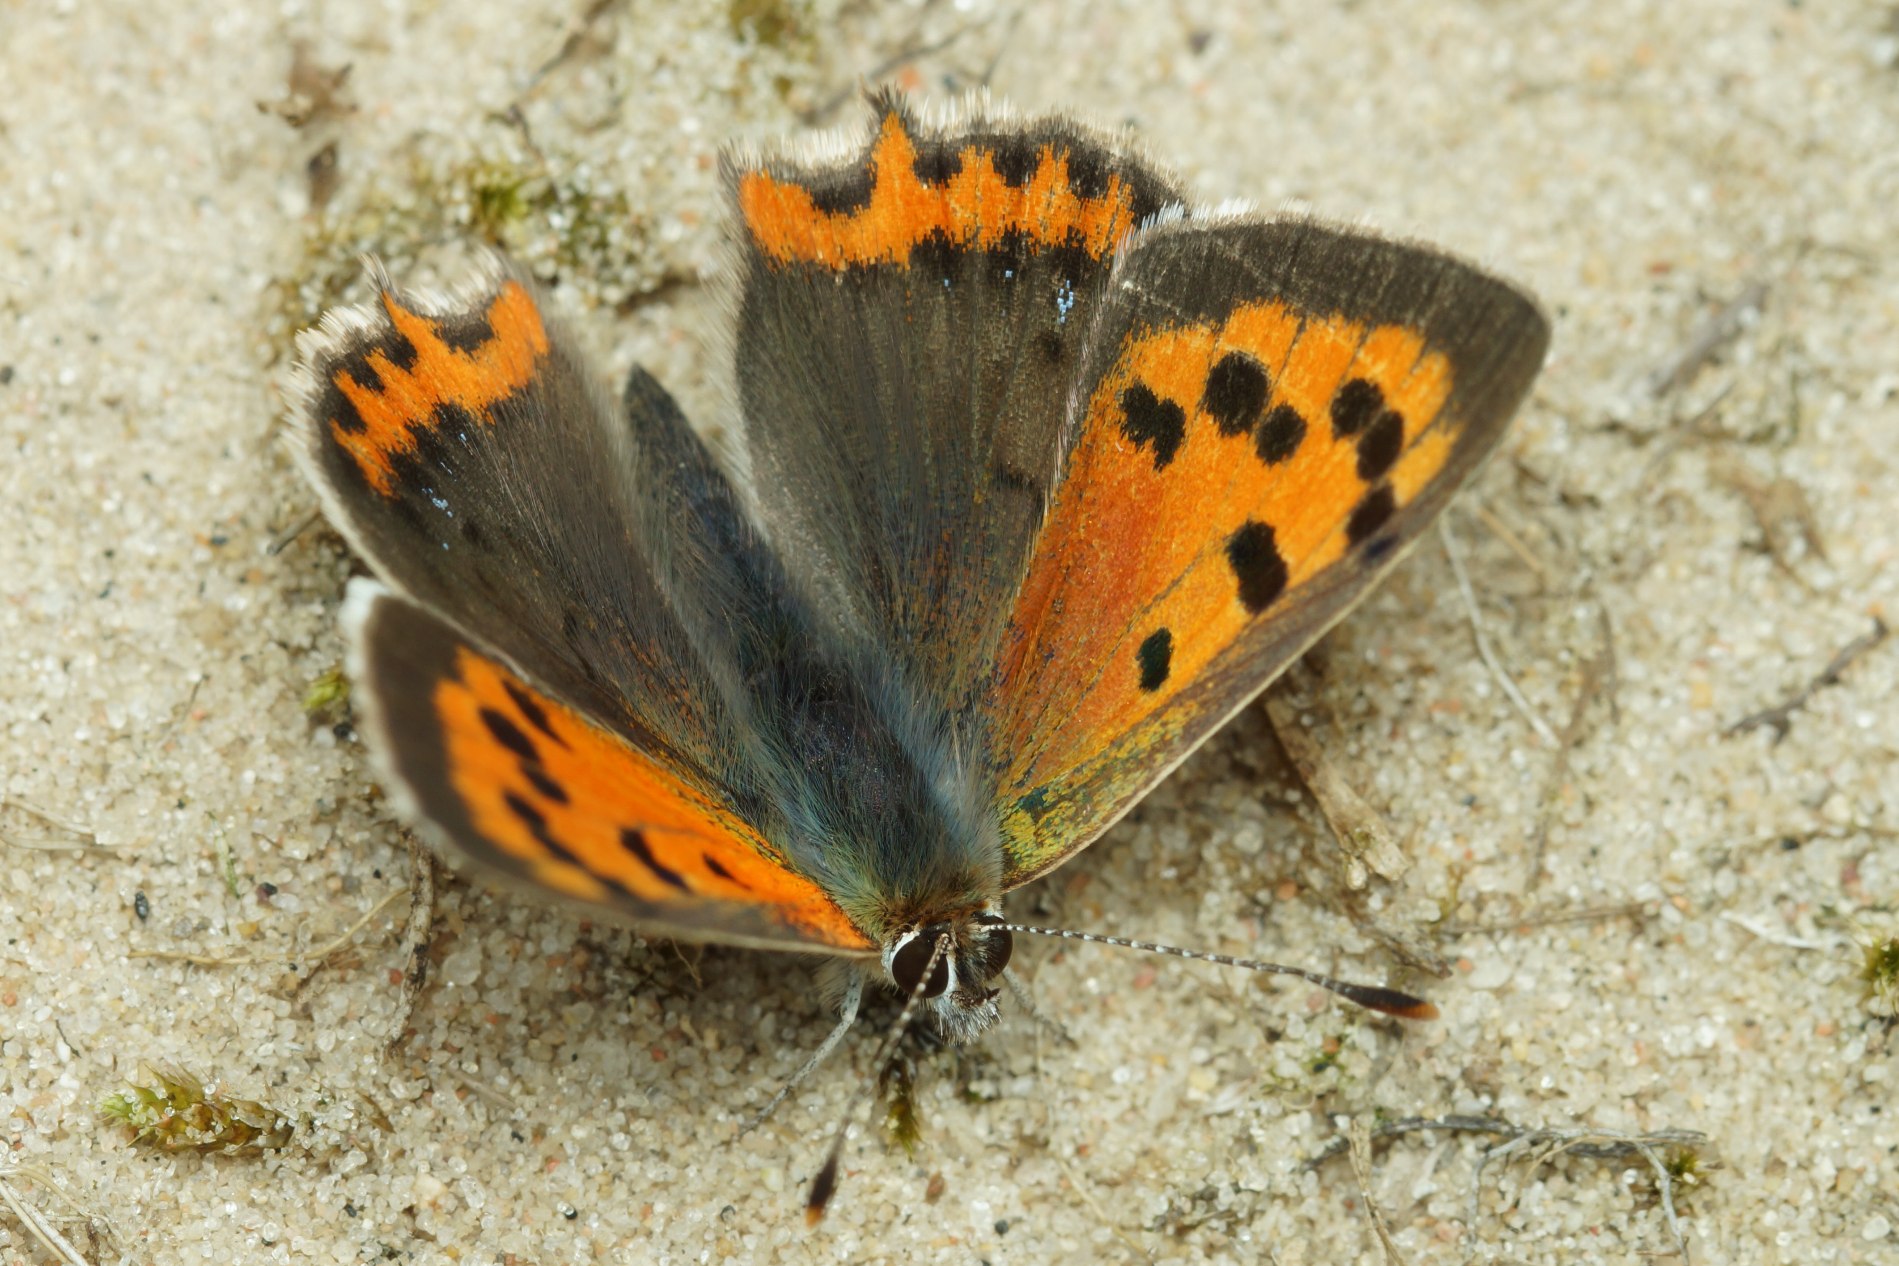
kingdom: Animalia
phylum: Arthropoda
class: Insecta
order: Lepidoptera
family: Lycaenidae
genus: Lycaena
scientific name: Lycaena phlaeas
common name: Lille ildfugl
